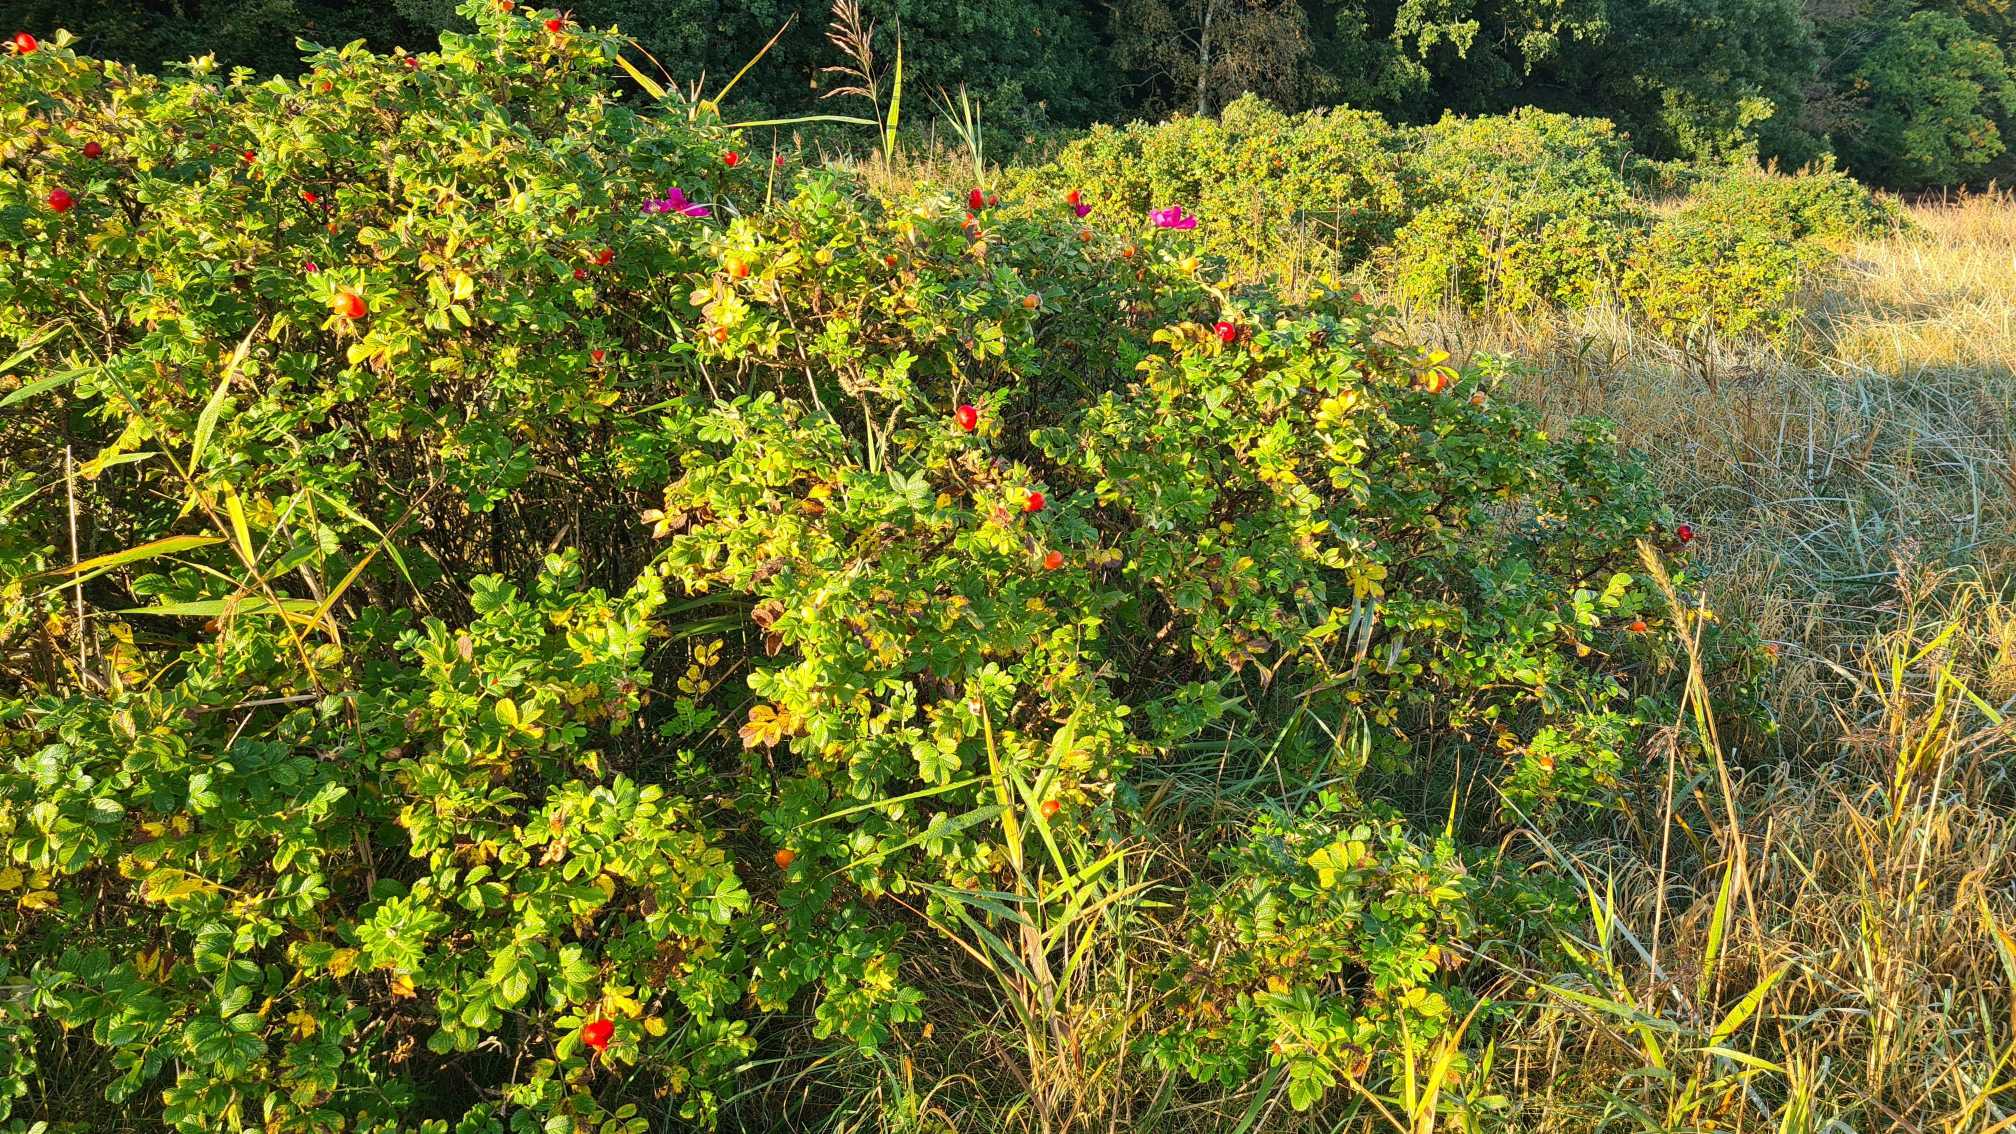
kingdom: Plantae
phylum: Tracheophyta
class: Magnoliopsida
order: Rosales
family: Rosaceae
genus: Rosa
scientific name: Rosa rugosa
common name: Rynket rose
